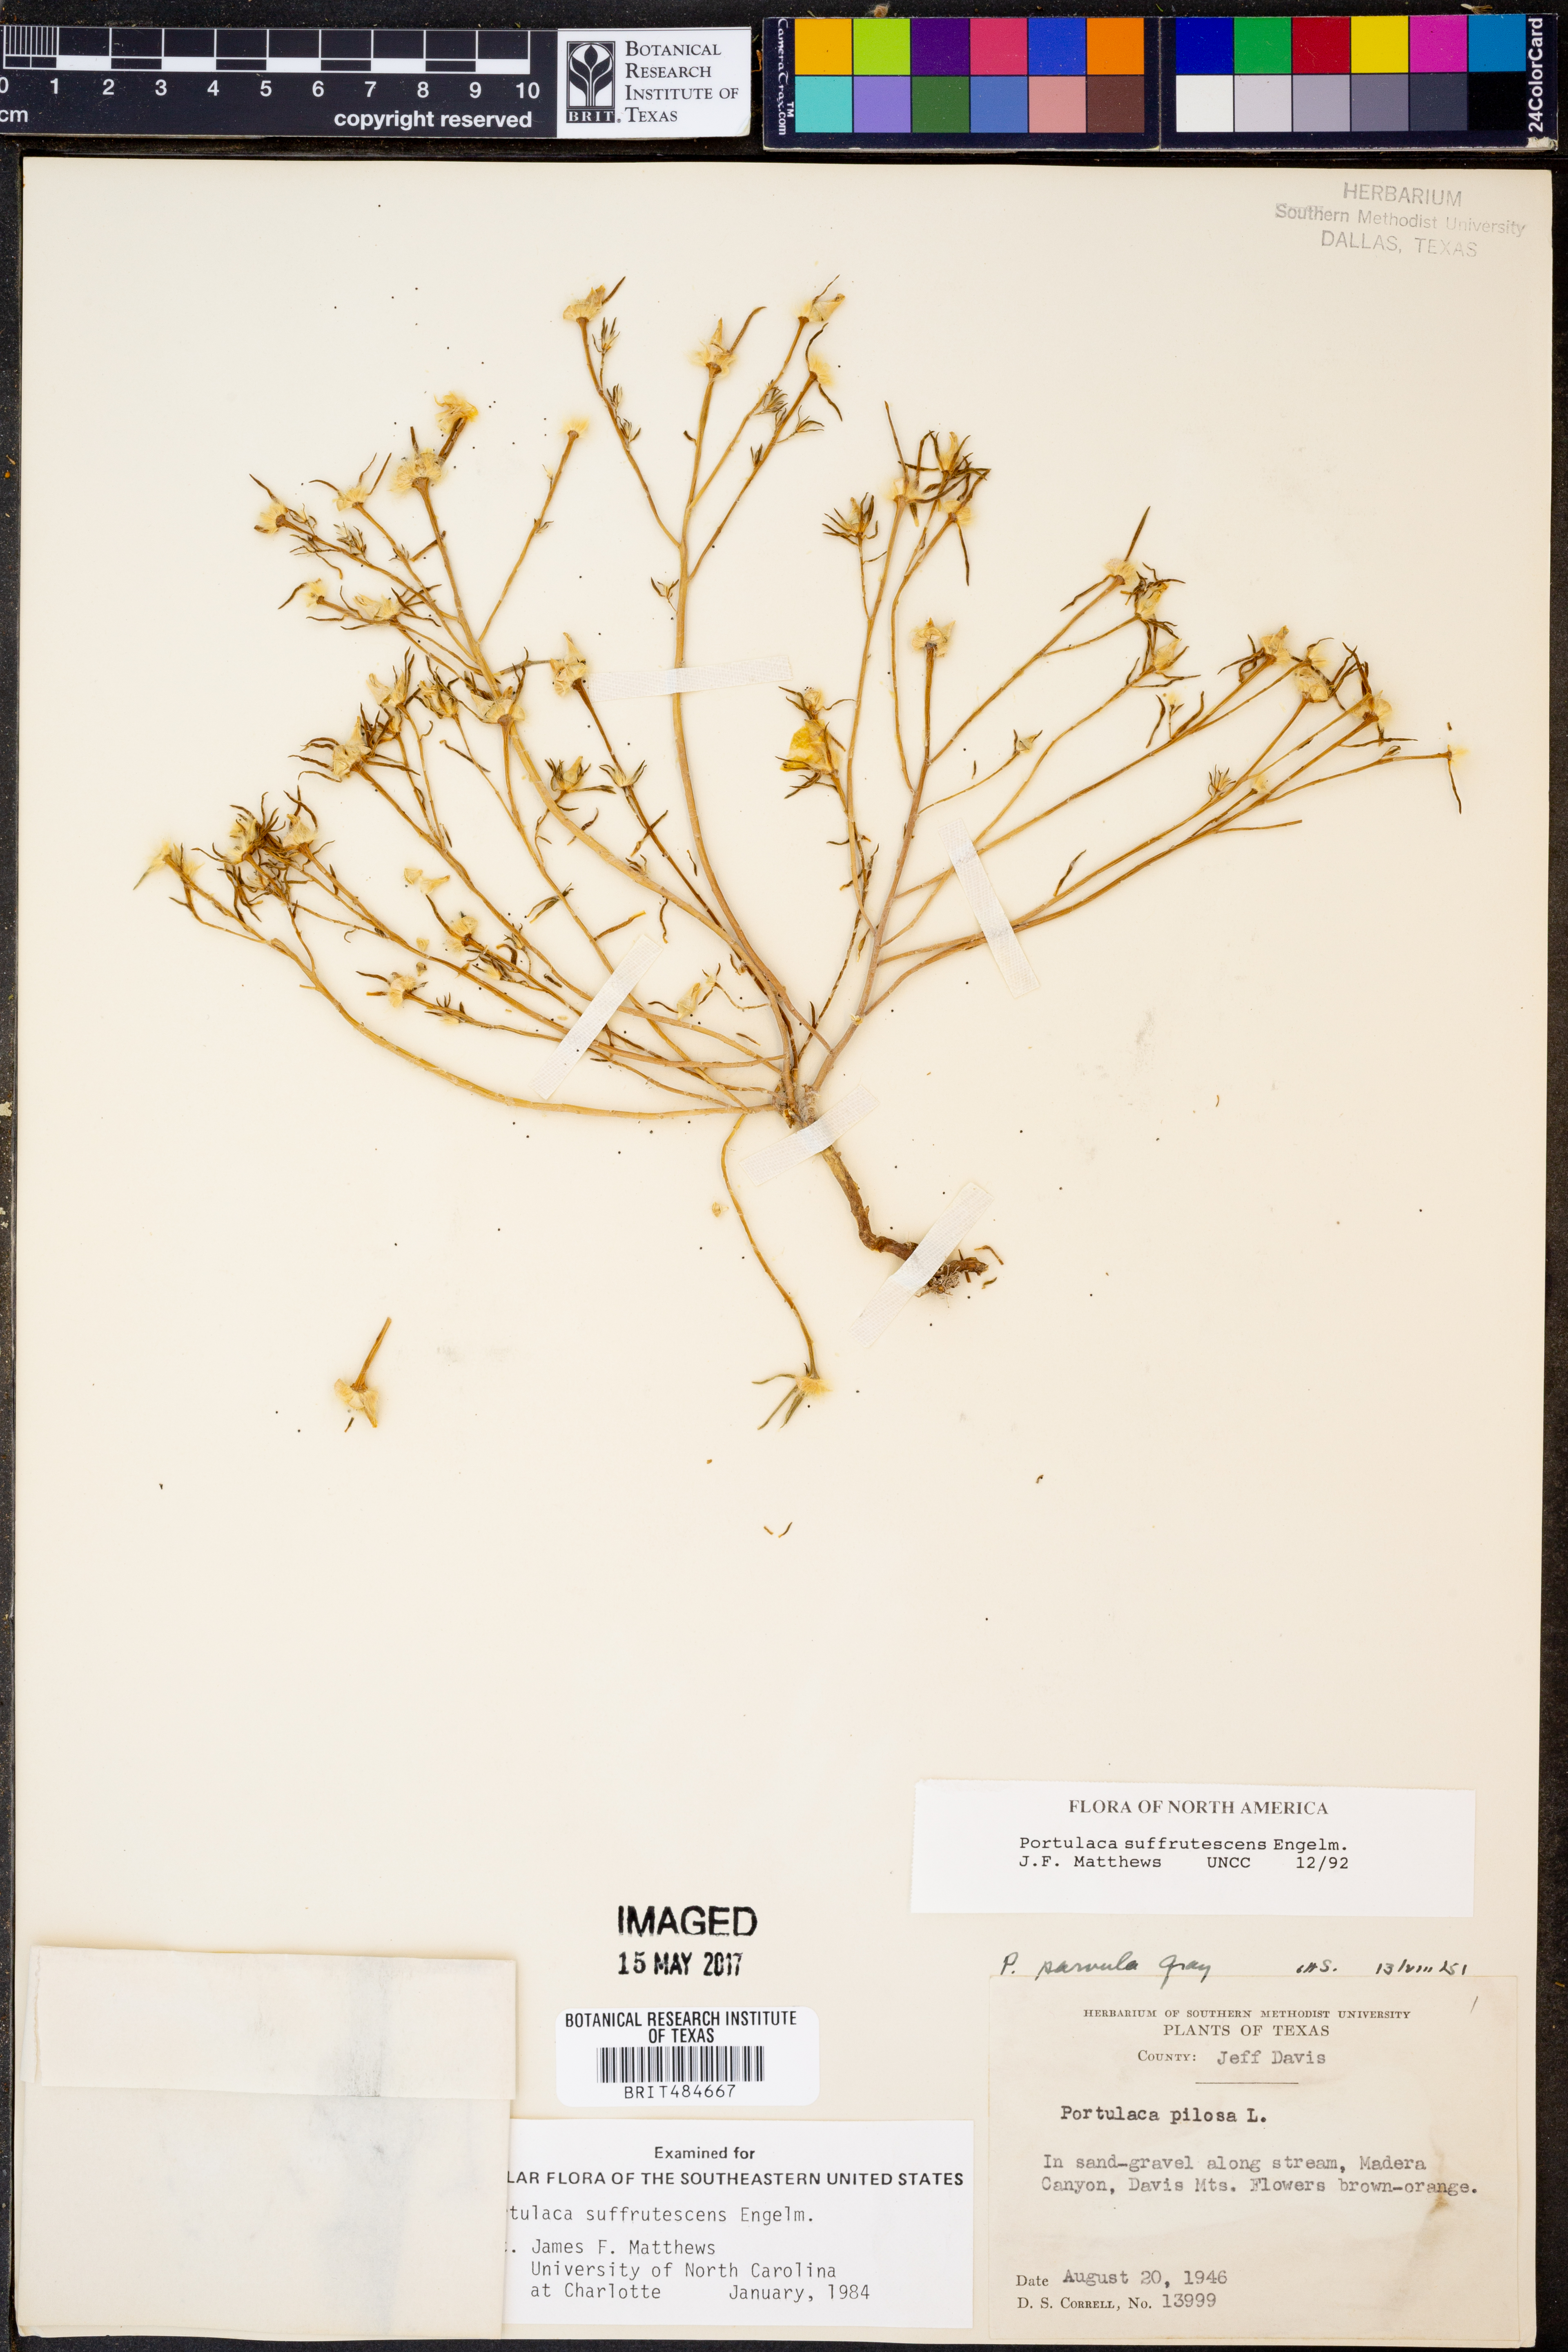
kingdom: Plantae
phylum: Tracheophyta
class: Magnoliopsida
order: Caryophyllales
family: Portulacaceae
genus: Portulaca
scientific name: Portulaca suffrutescens
